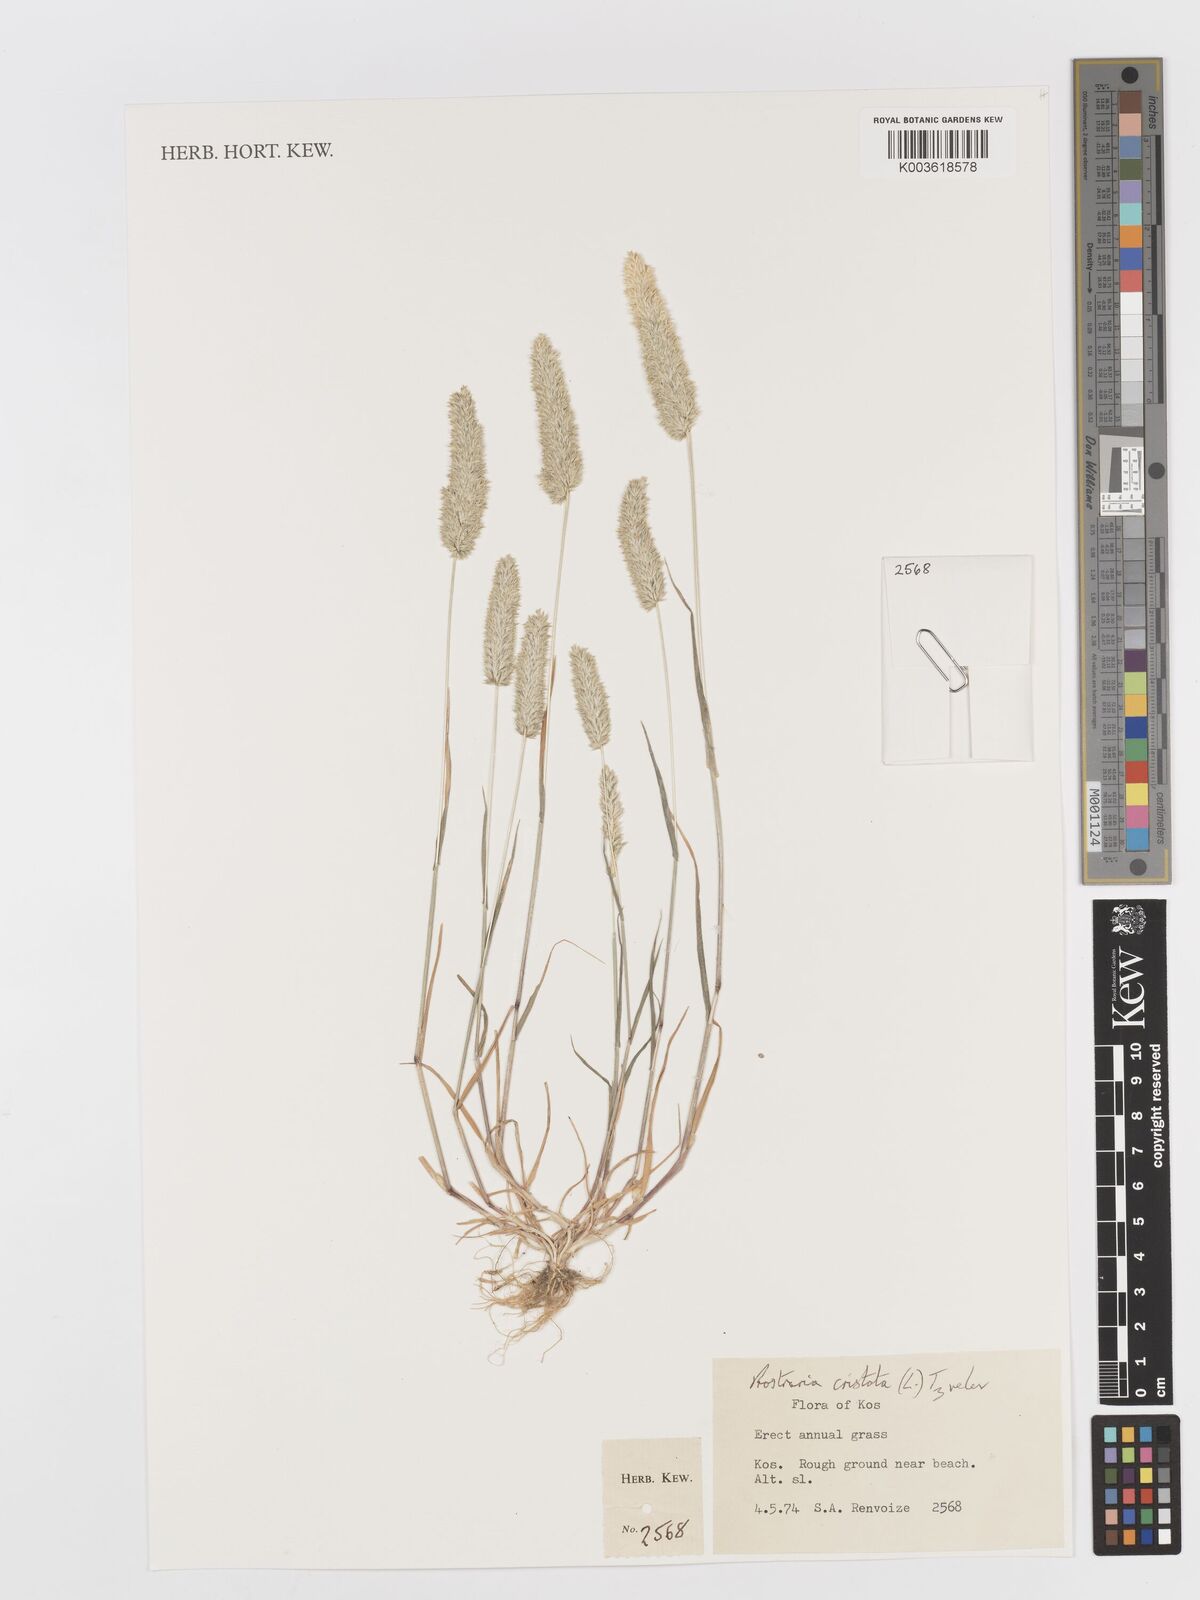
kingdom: Plantae
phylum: Tracheophyta
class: Liliopsida
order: Poales
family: Poaceae
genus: Rostraria
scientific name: Rostraria cristata
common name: Mediterranean hair-grass
